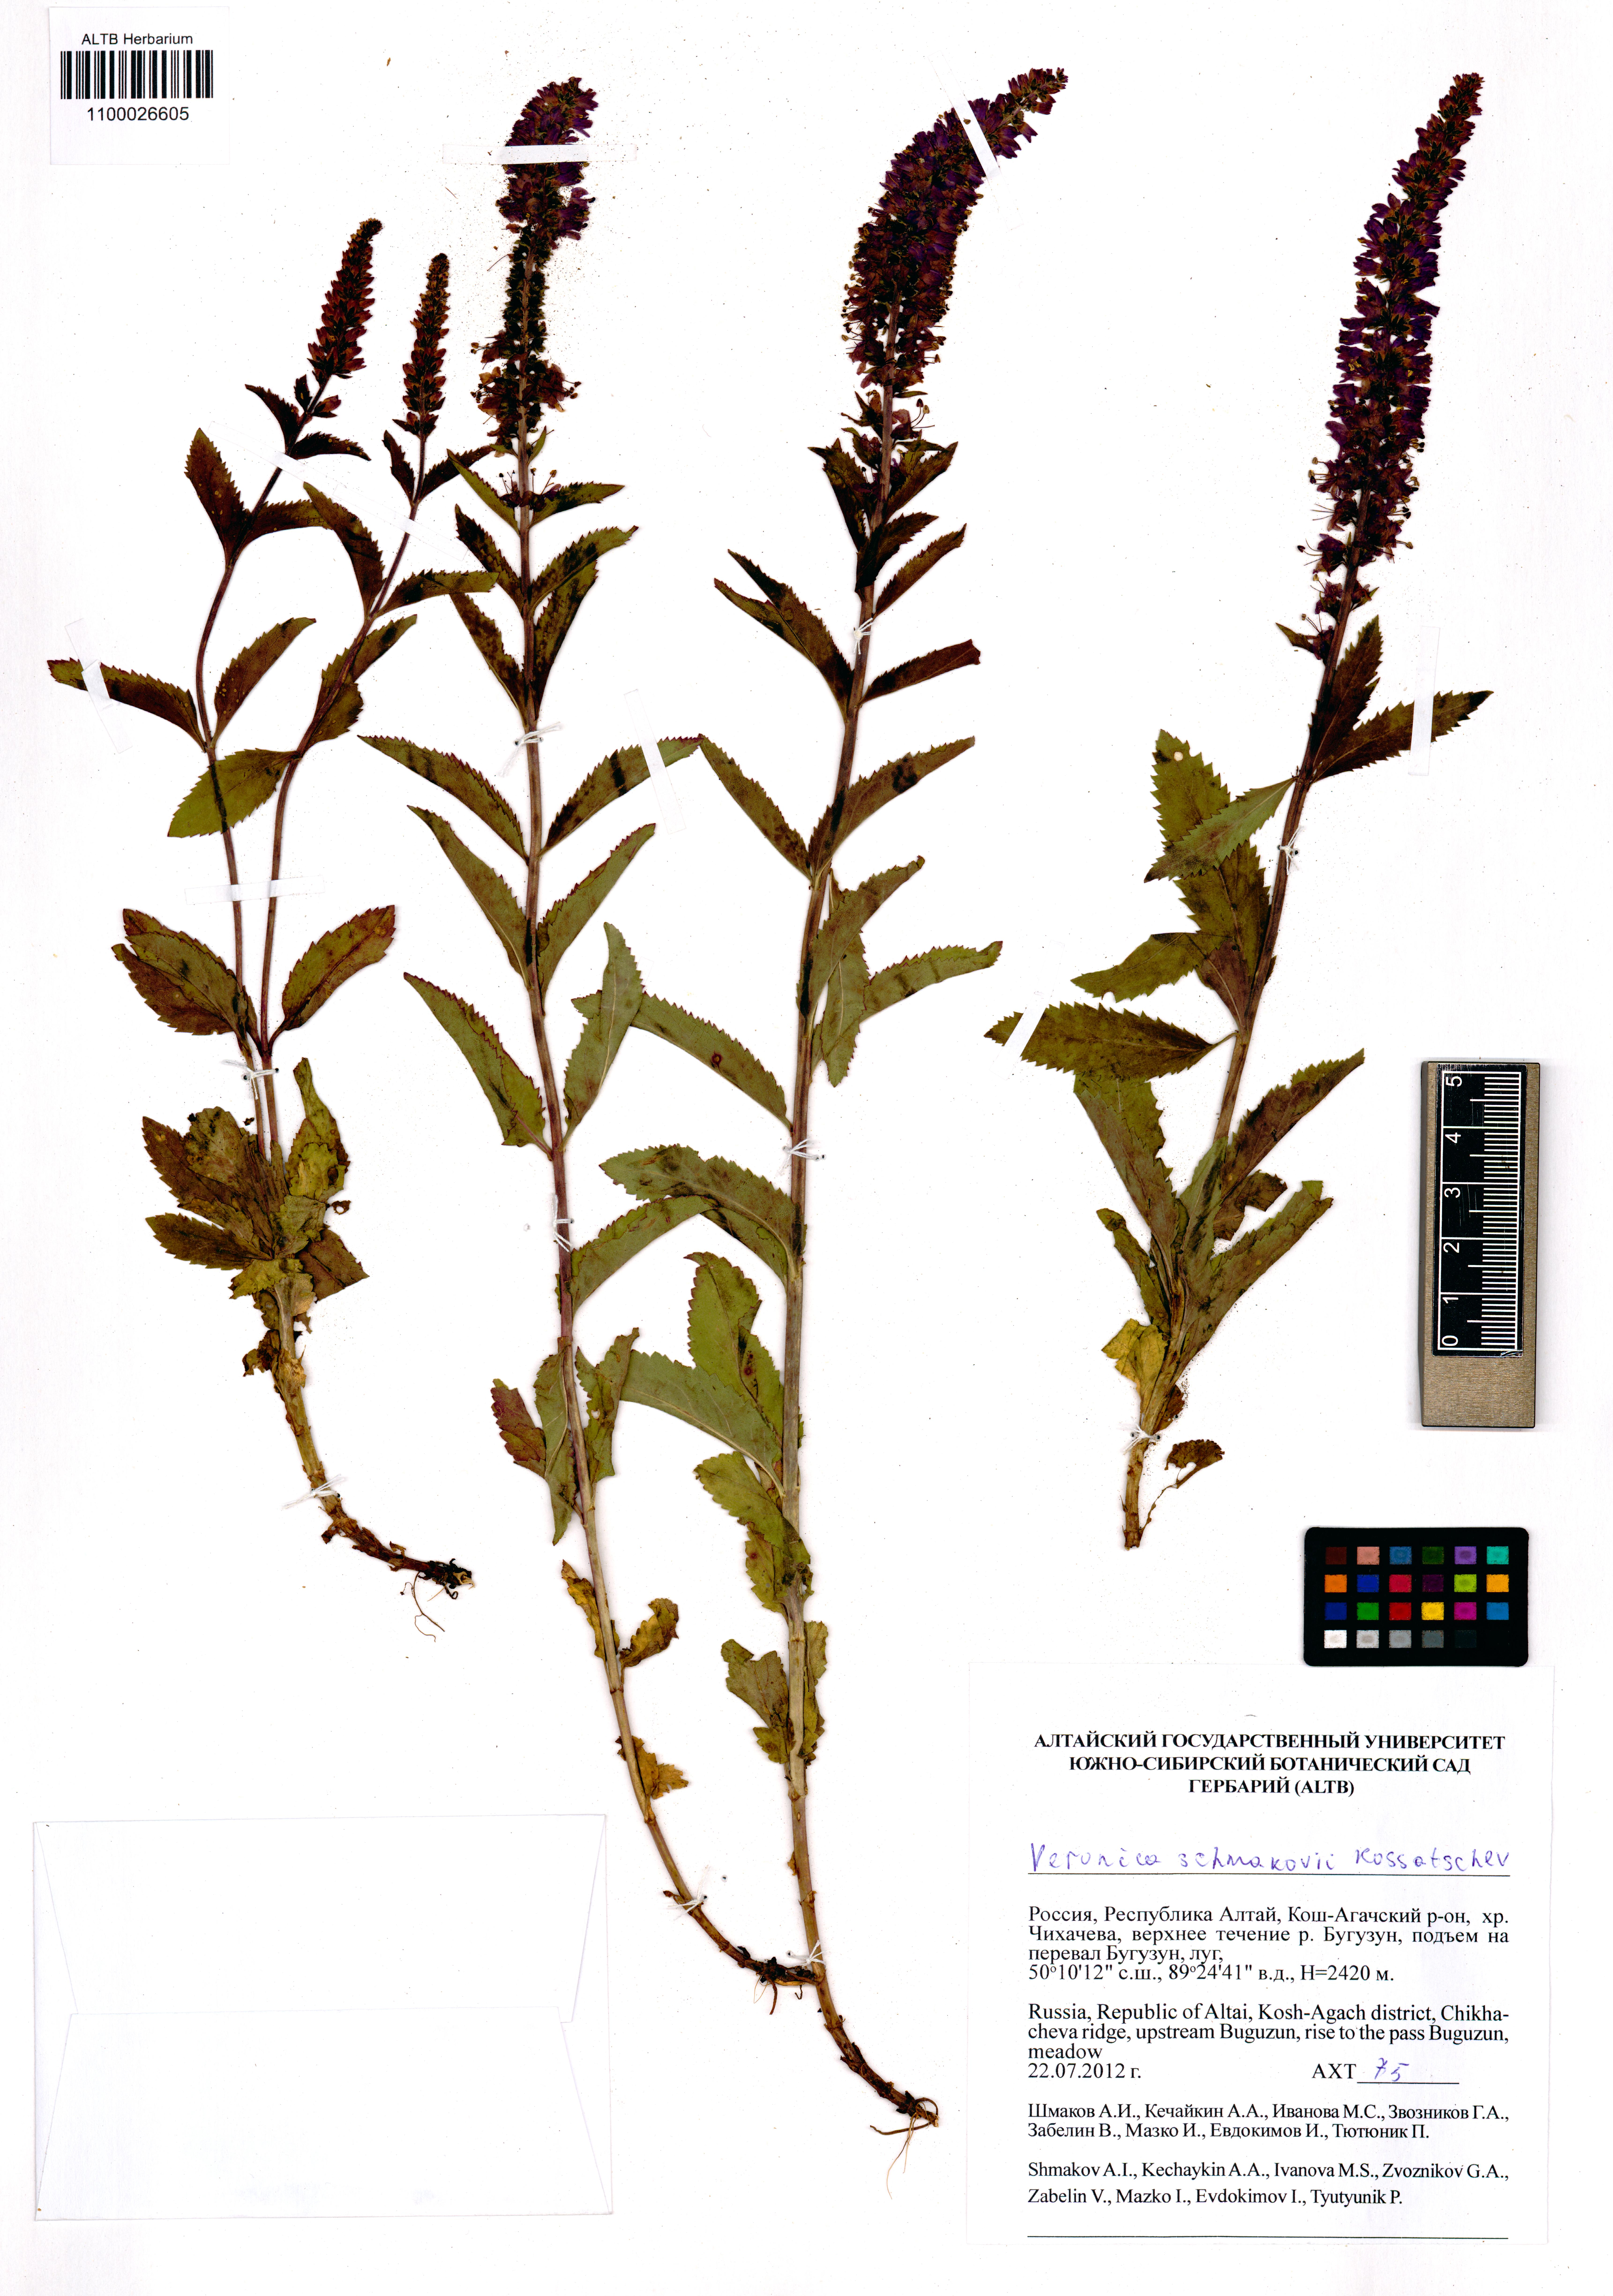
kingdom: Plantae
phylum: Tracheophyta
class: Magnoliopsida
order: Lamiales
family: Plantaginaceae
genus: Veronica
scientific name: Veronica schmakovii
